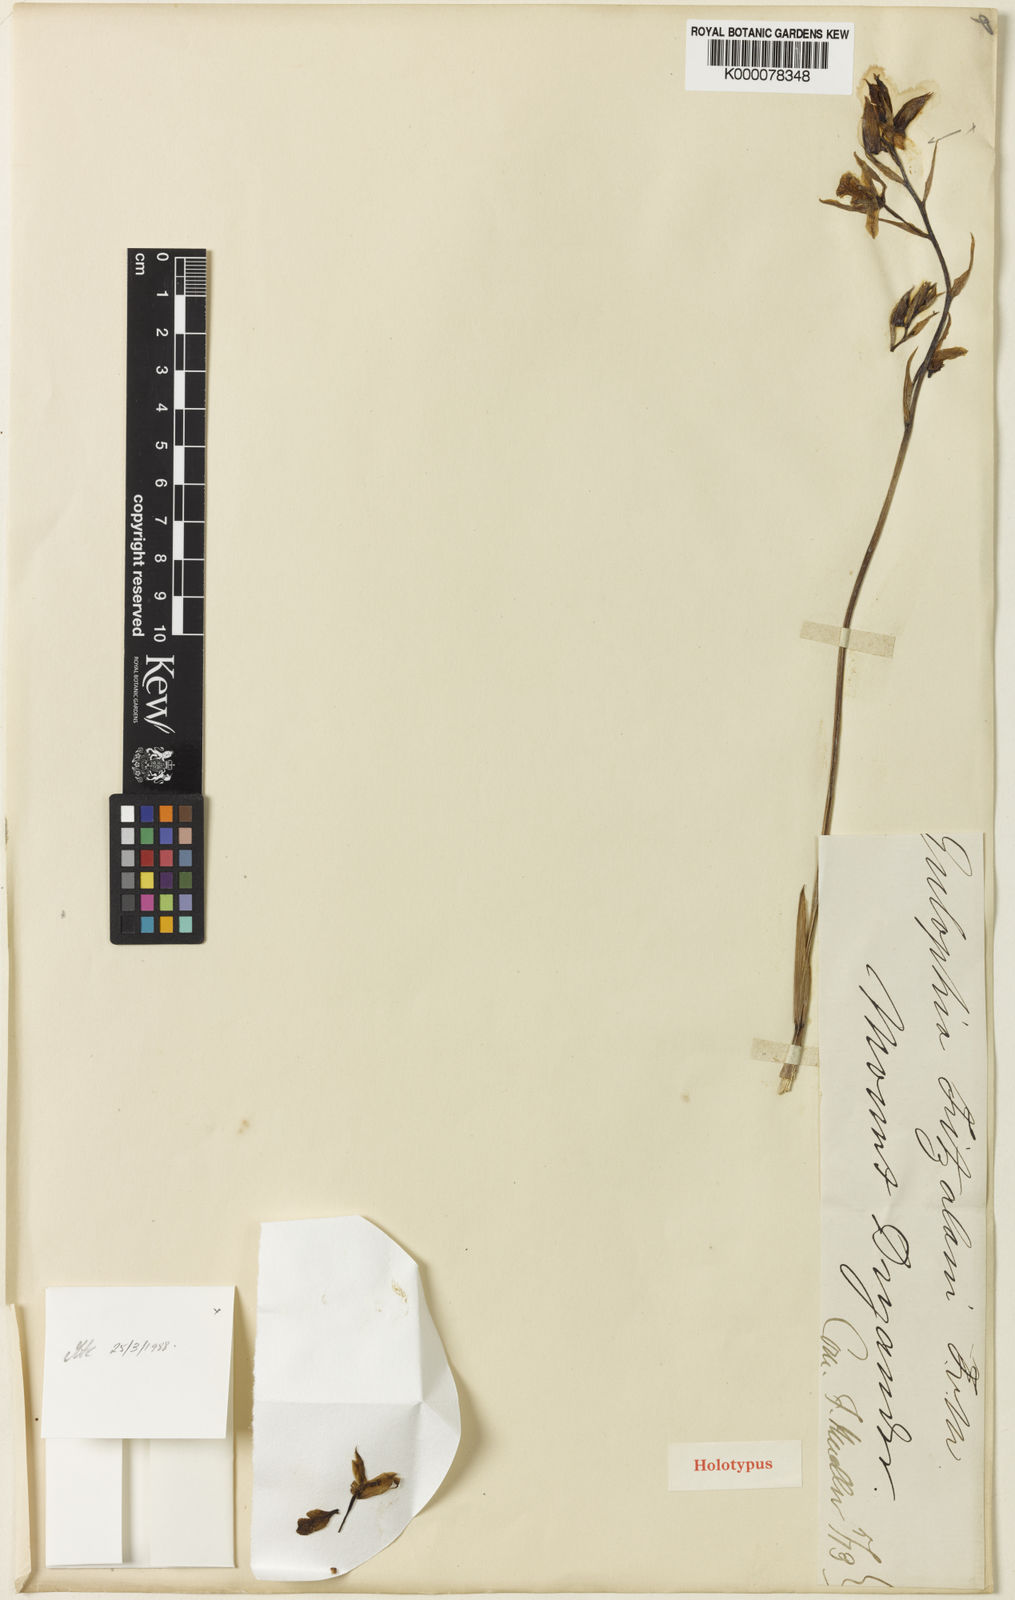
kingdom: Plantae
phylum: Tracheophyta
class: Liliopsida
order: Asparagales
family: Orchidaceae
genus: Eulophia
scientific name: Eulophia bicallosa
